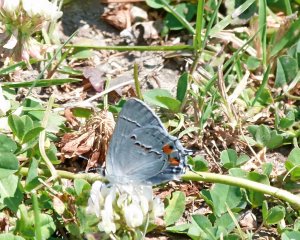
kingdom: Animalia
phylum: Arthropoda
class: Insecta
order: Lepidoptera
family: Lycaenidae
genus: Strymon
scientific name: Strymon melinus
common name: Gray Hairstreak
